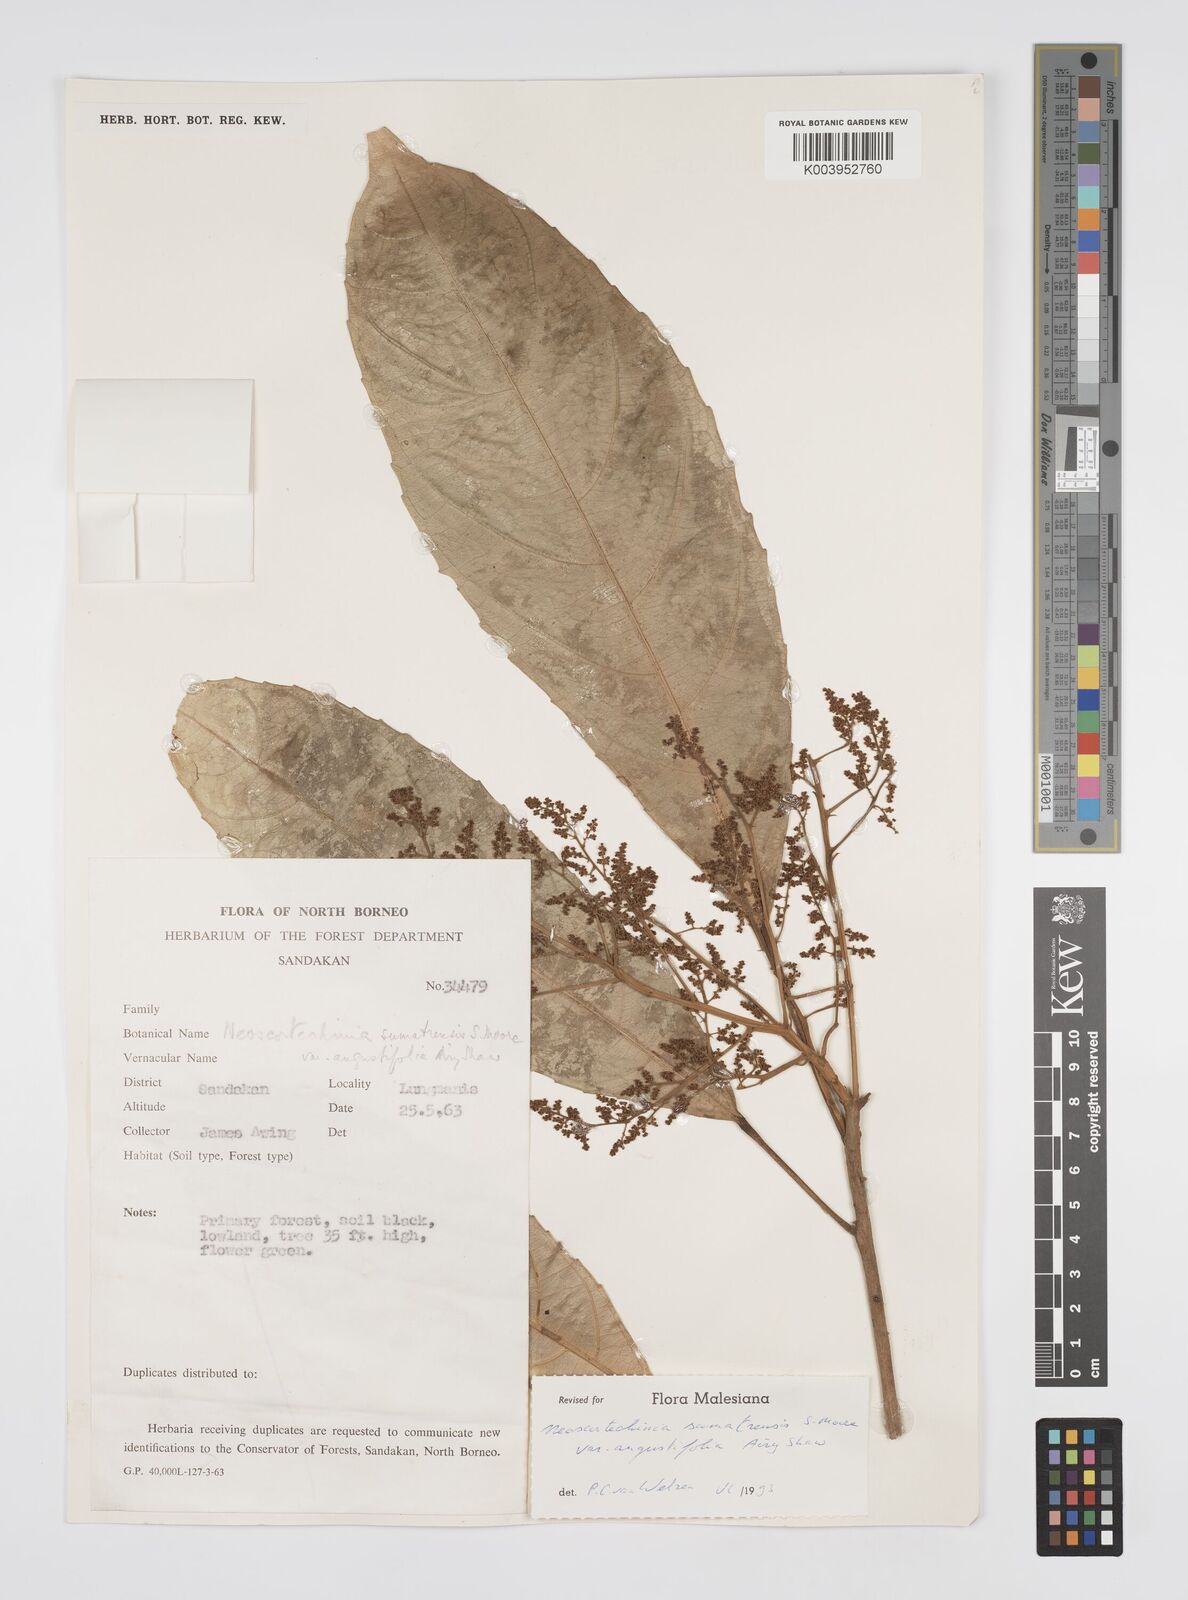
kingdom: Plantae
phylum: Tracheophyta
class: Magnoliopsida
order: Malpighiales
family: Euphorbiaceae
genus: Neoscortechinia
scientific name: Neoscortechinia angustifolia
